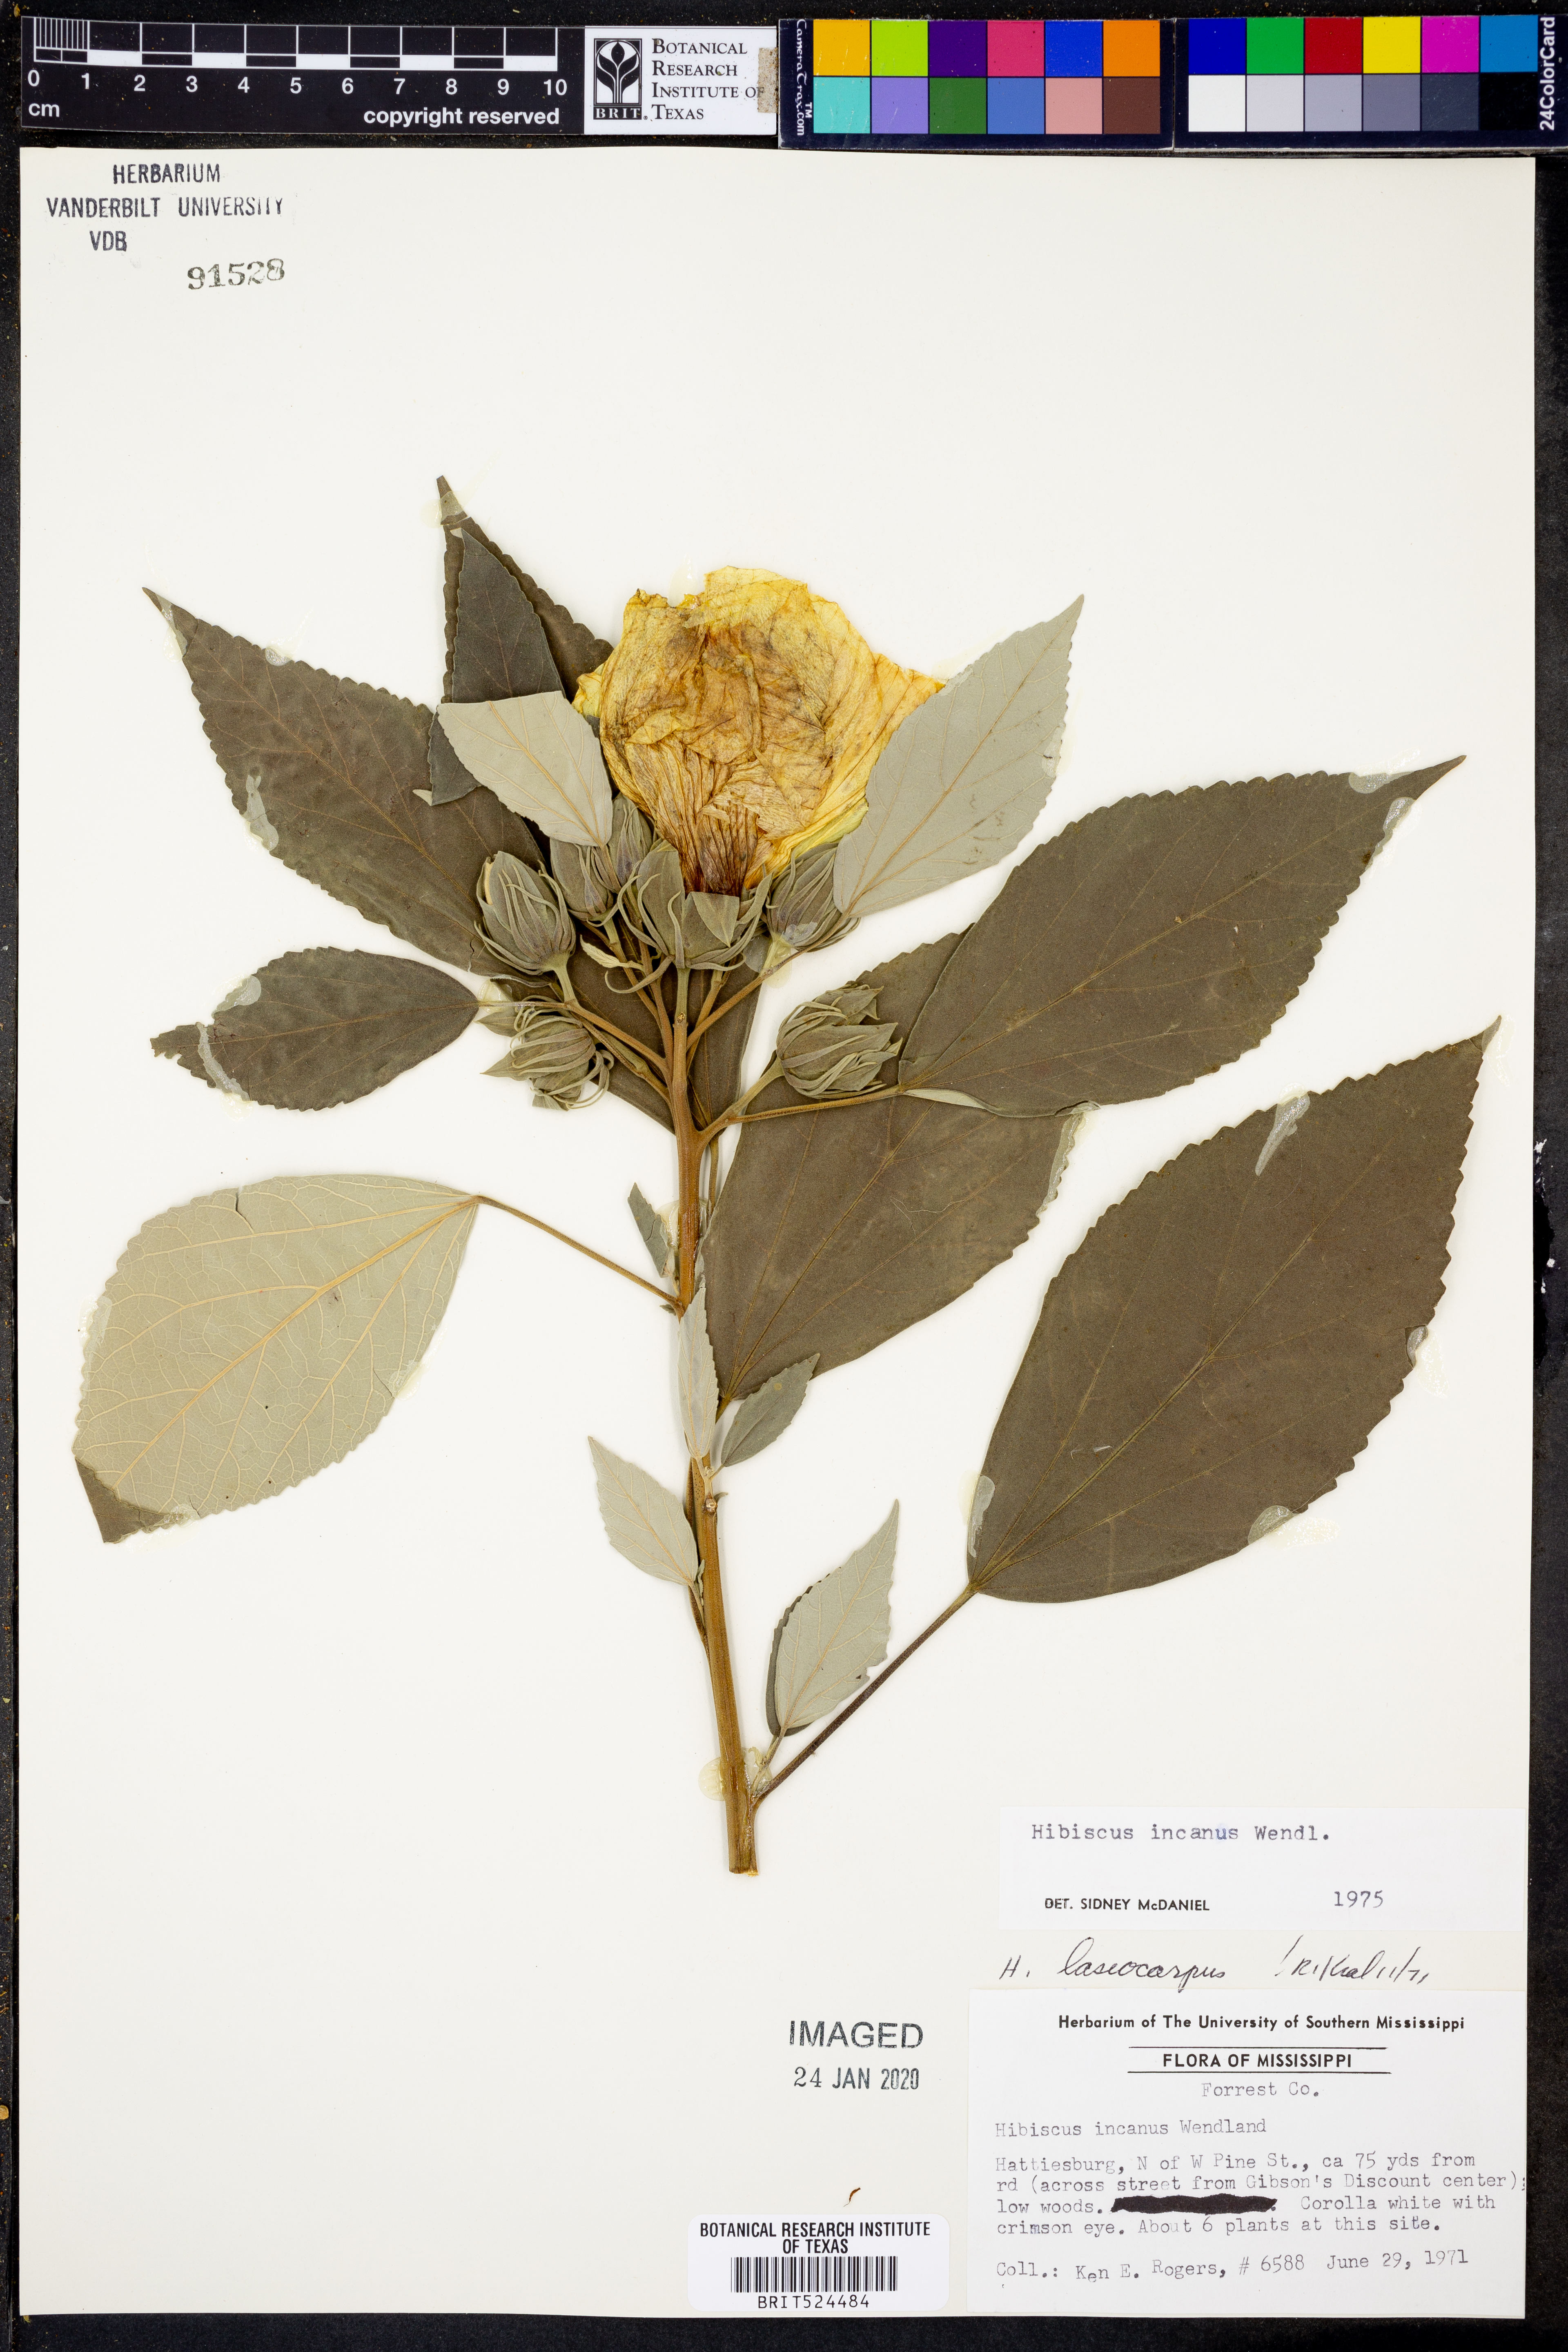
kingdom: Plantae
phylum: Tracheophyta
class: Magnoliopsida
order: Malvales
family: Malvaceae
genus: Hibiscus
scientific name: Hibiscus moscheutos
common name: Common rose-mallow
